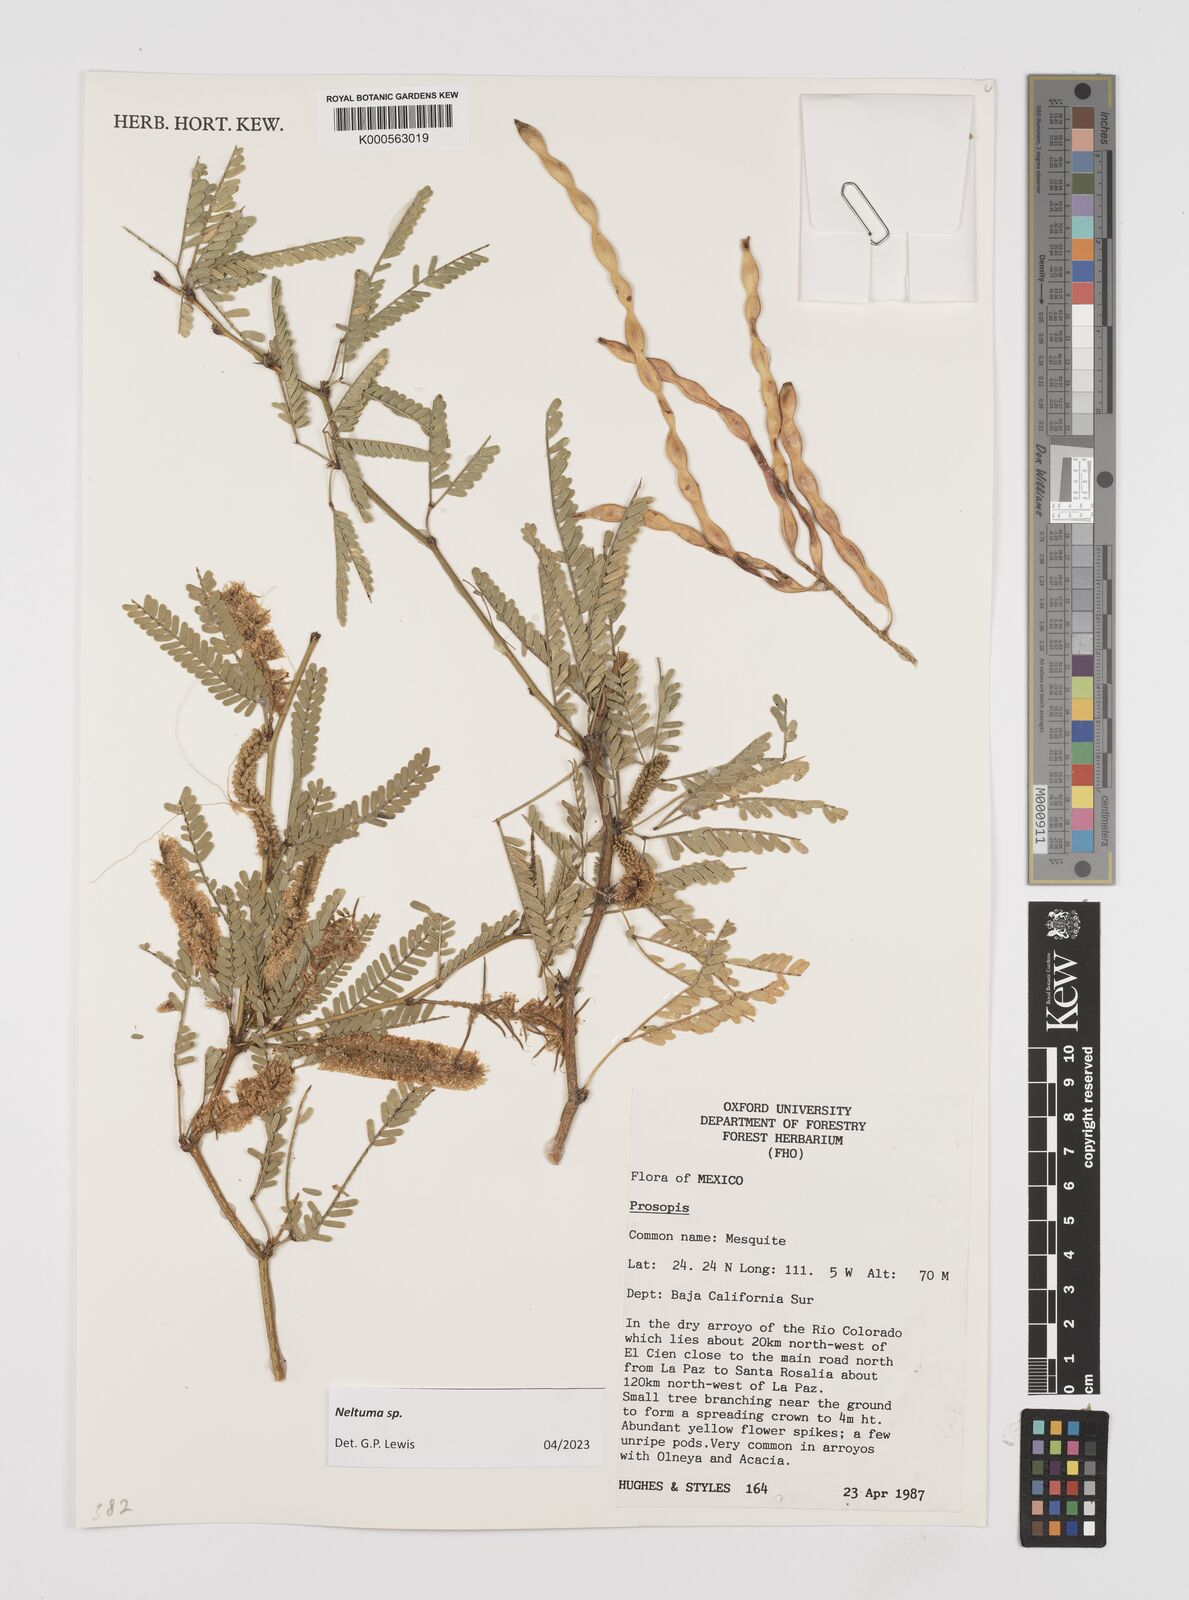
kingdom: Plantae
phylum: Tracheophyta
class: Magnoliopsida
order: Fabales
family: Fabaceae
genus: Prosopis
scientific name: Prosopis
